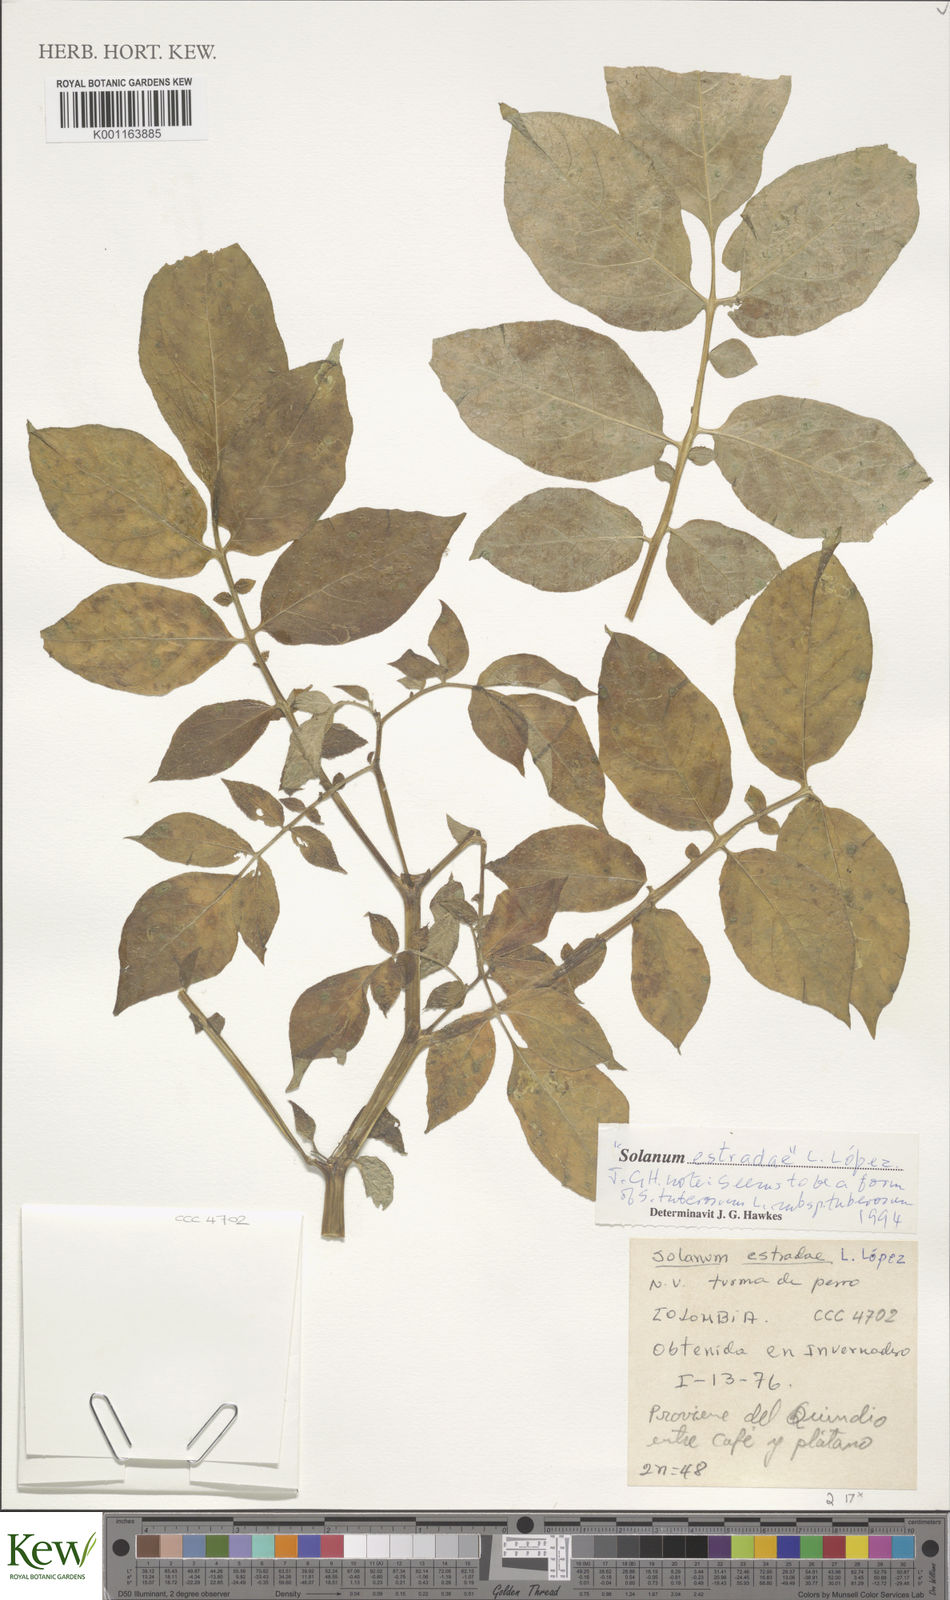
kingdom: Plantae
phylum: Tracheophyta
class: Magnoliopsida
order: Solanales
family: Solanaceae
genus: Solanum
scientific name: Solanum
